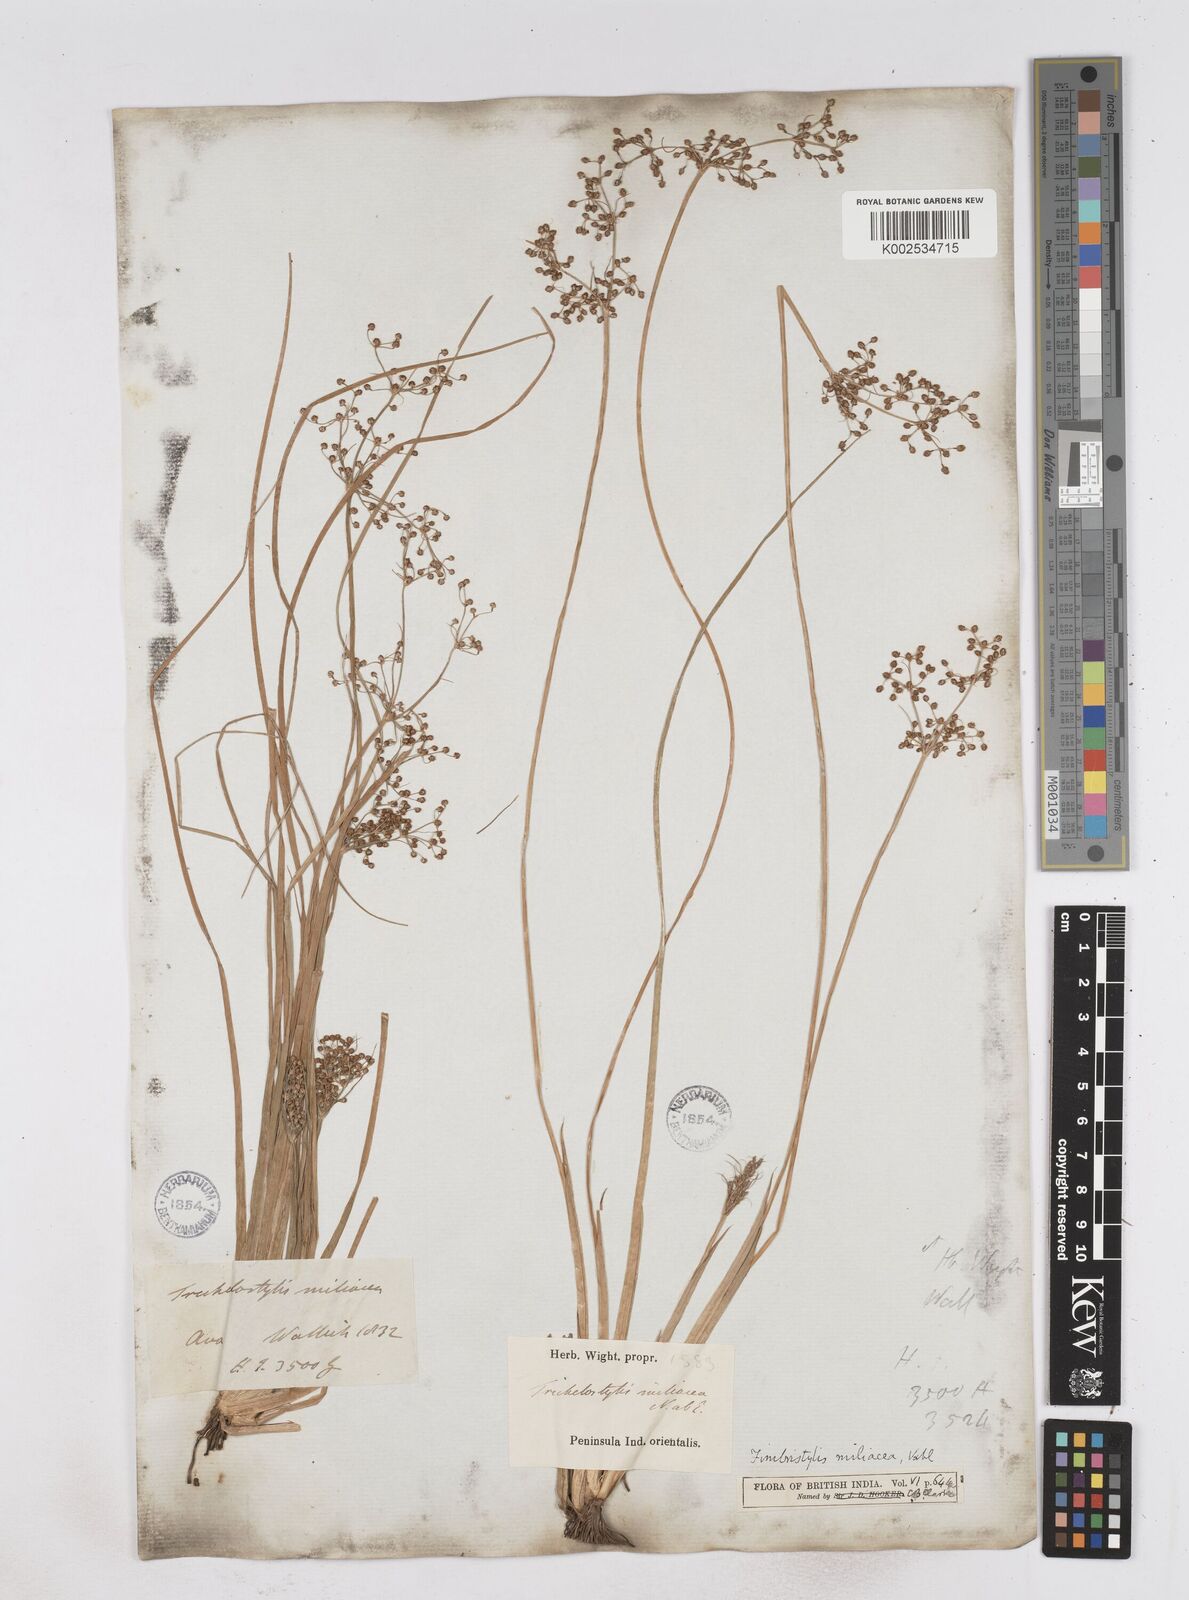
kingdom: Plantae
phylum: Tracheophyta
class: Liliopsida
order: Poales
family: Cyperaceae
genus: Fimbristylis
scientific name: Fimbristylis littoralis
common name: Fimbry
